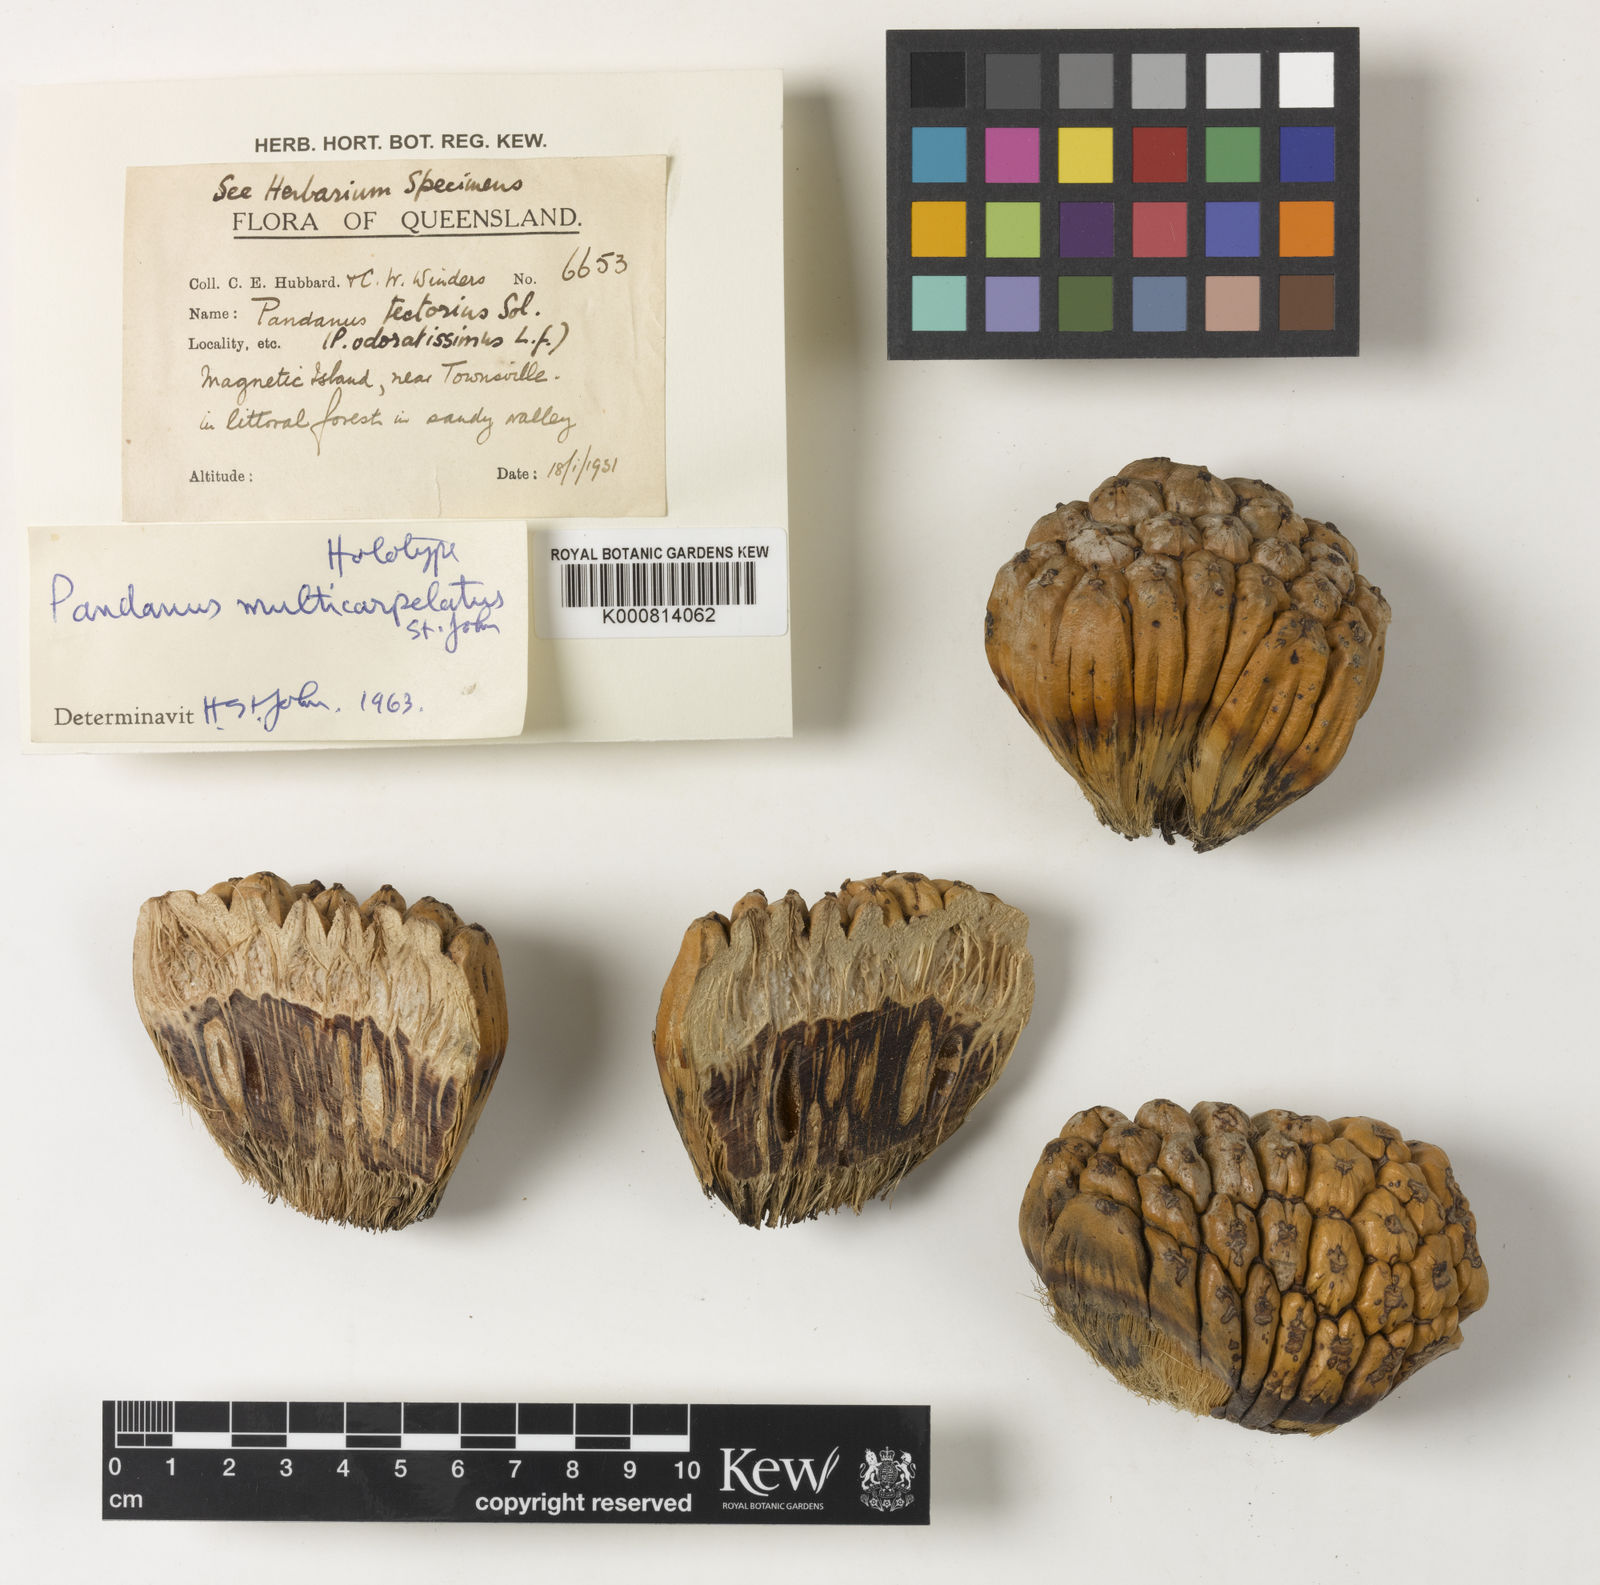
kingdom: Plantae
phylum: Tracheophyta
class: Liliopsida
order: Pandanales
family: Pandanaceae
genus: Pandanus
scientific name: Pandanus solms-laubachii
